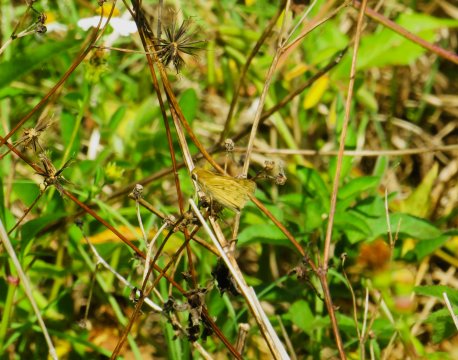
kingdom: Animalia
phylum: Arthropoda
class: Insecta
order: Lepidoptera
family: Hesperiidae
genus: Hylephila
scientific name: Hylephila phyleus
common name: Fiery Skipper
